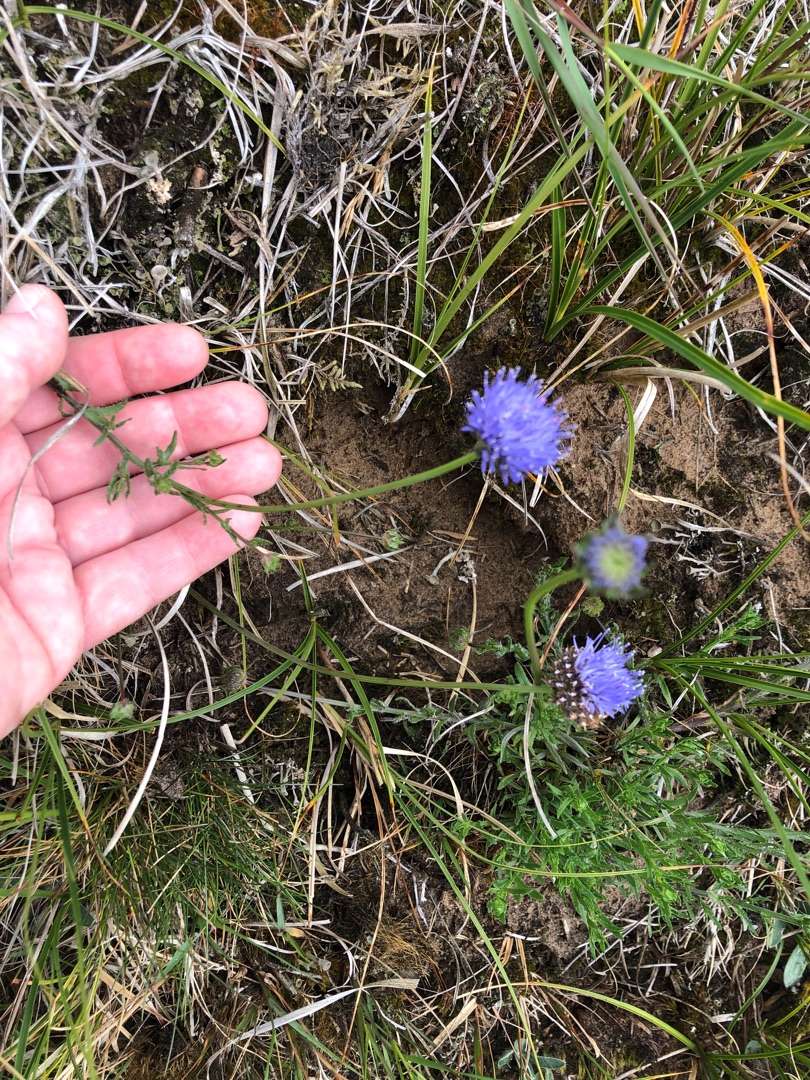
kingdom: Plantae
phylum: Tracheophyta
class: Magnoliopsida
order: Asterales
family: Campanulaceae
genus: Jasione
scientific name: Jasione montana
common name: Blåmunke
